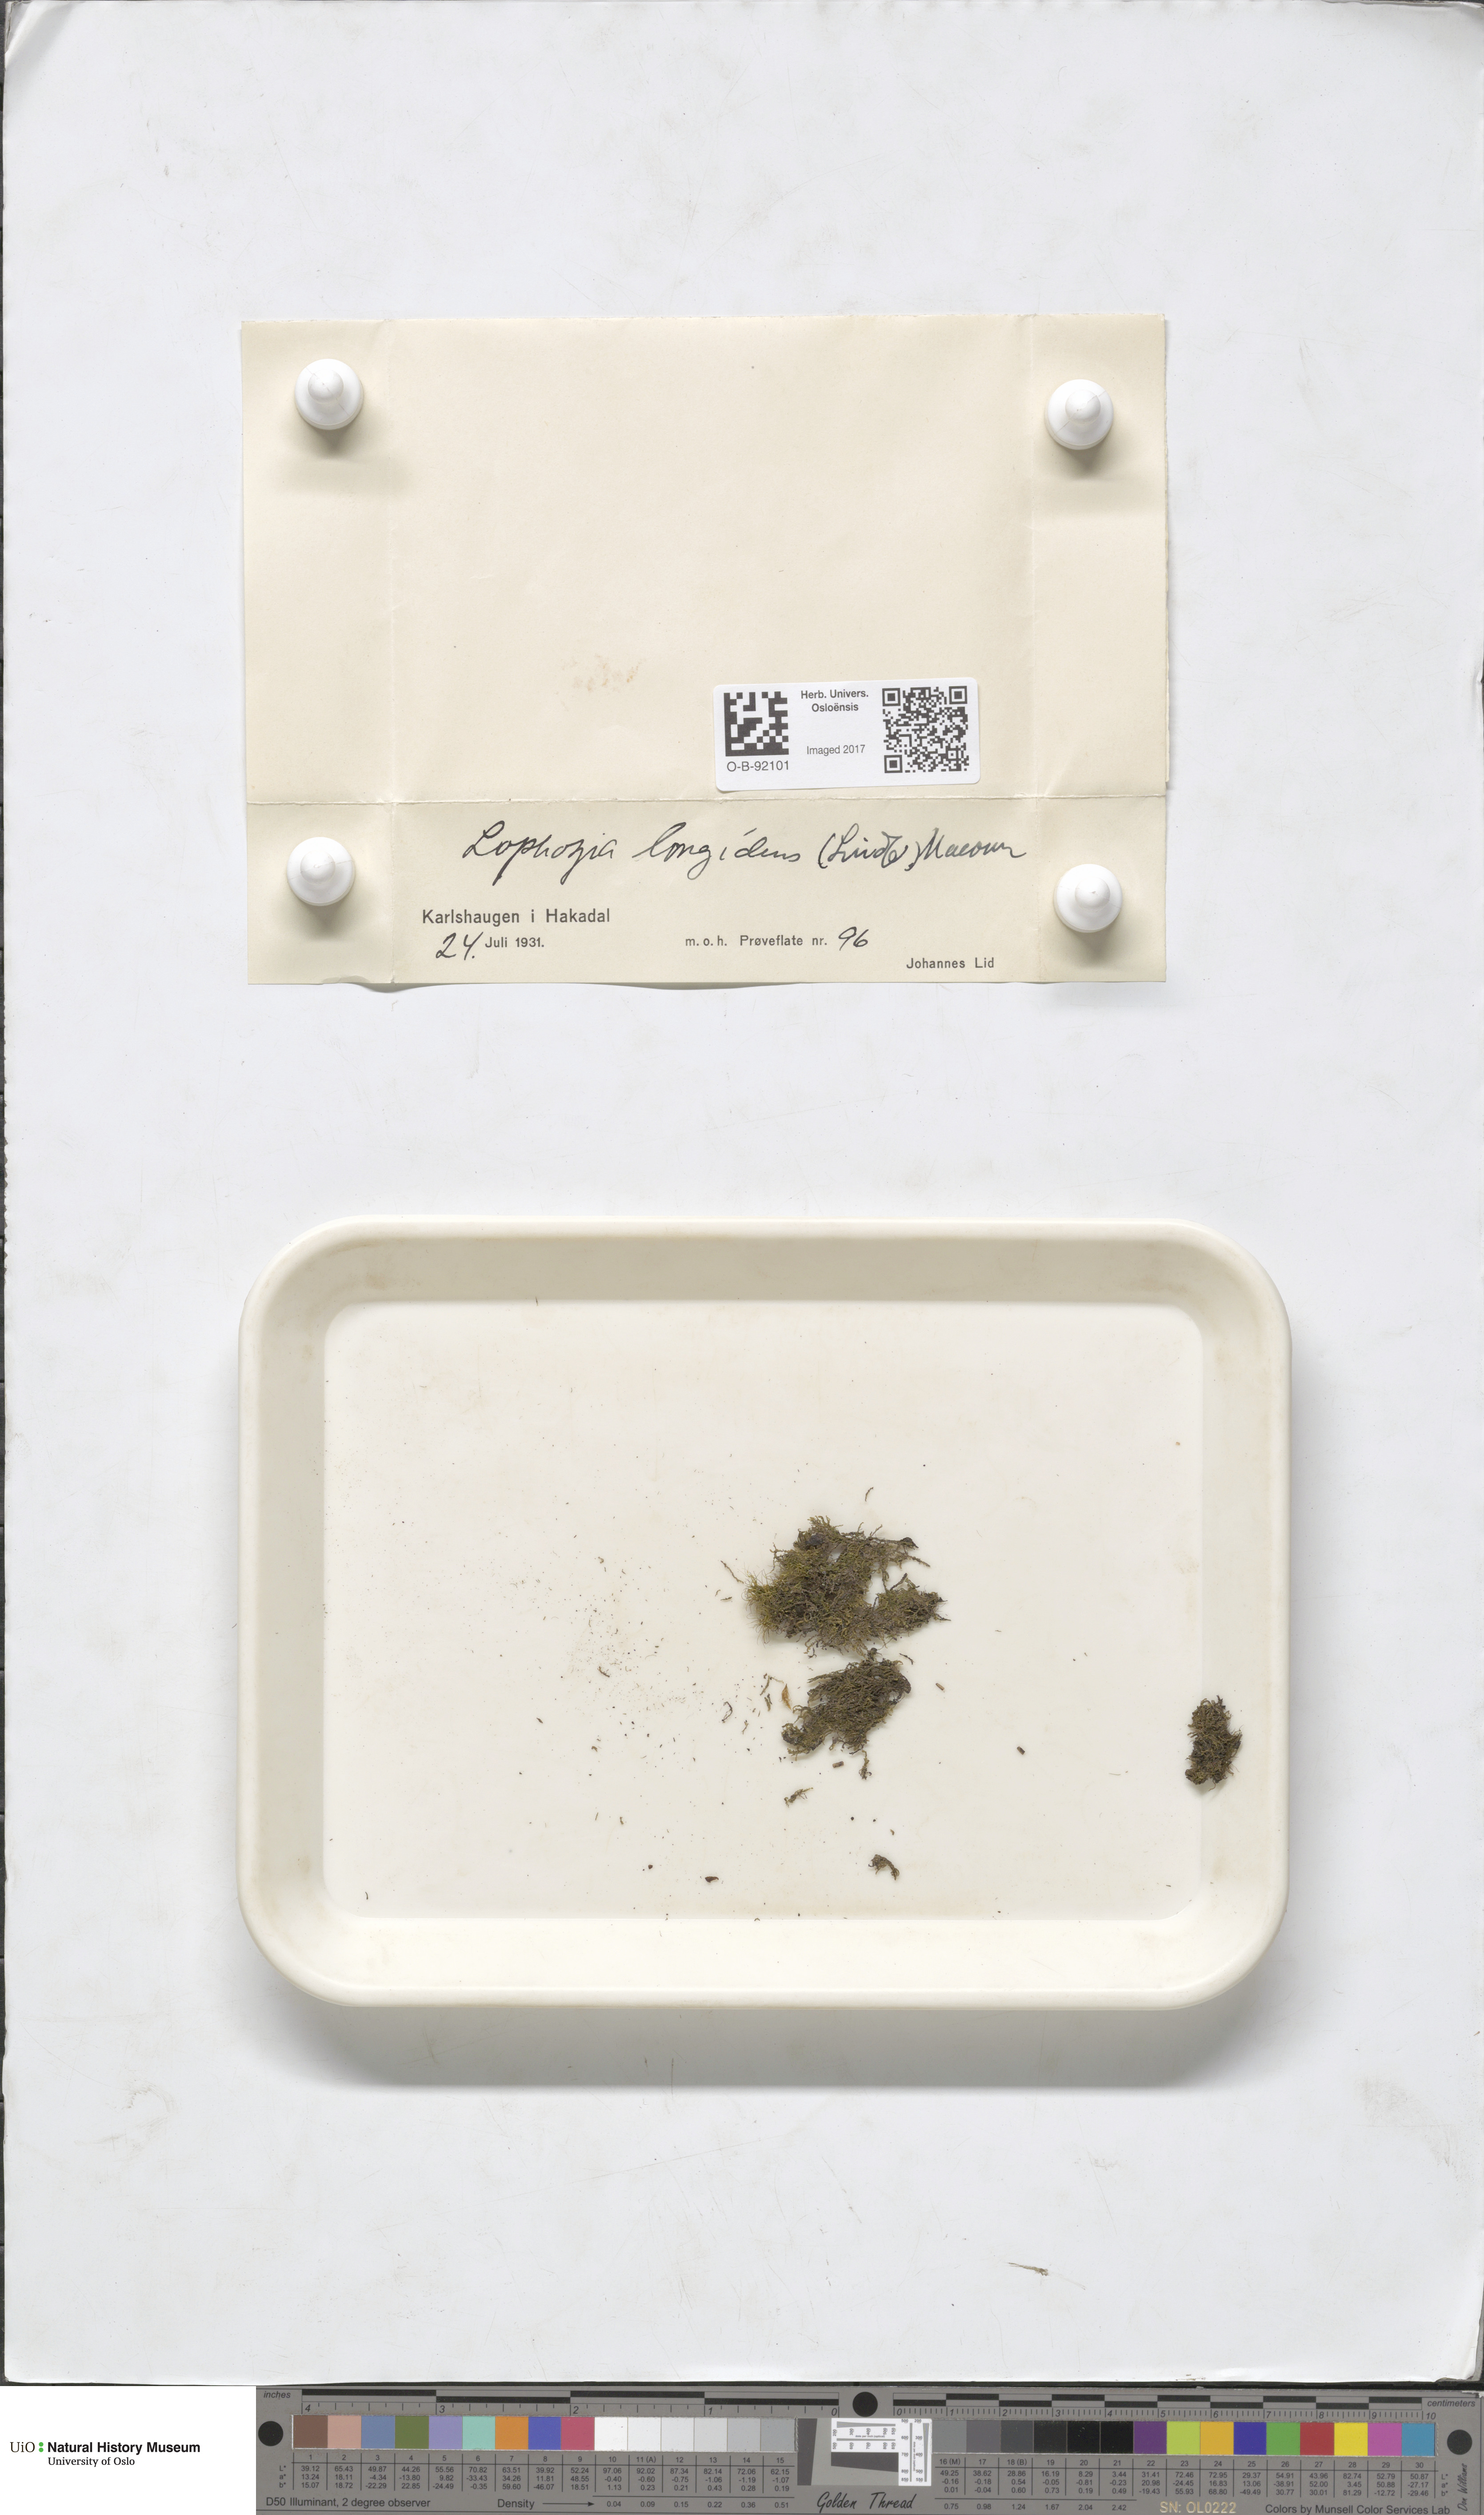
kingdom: Plantae
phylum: Marchantiophyta
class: Jungermanniopsida
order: Jungermanniales
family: Lophoziaceae
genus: Lophoziopsis
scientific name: Lophoziopsis longidens
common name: Horned notchwort
